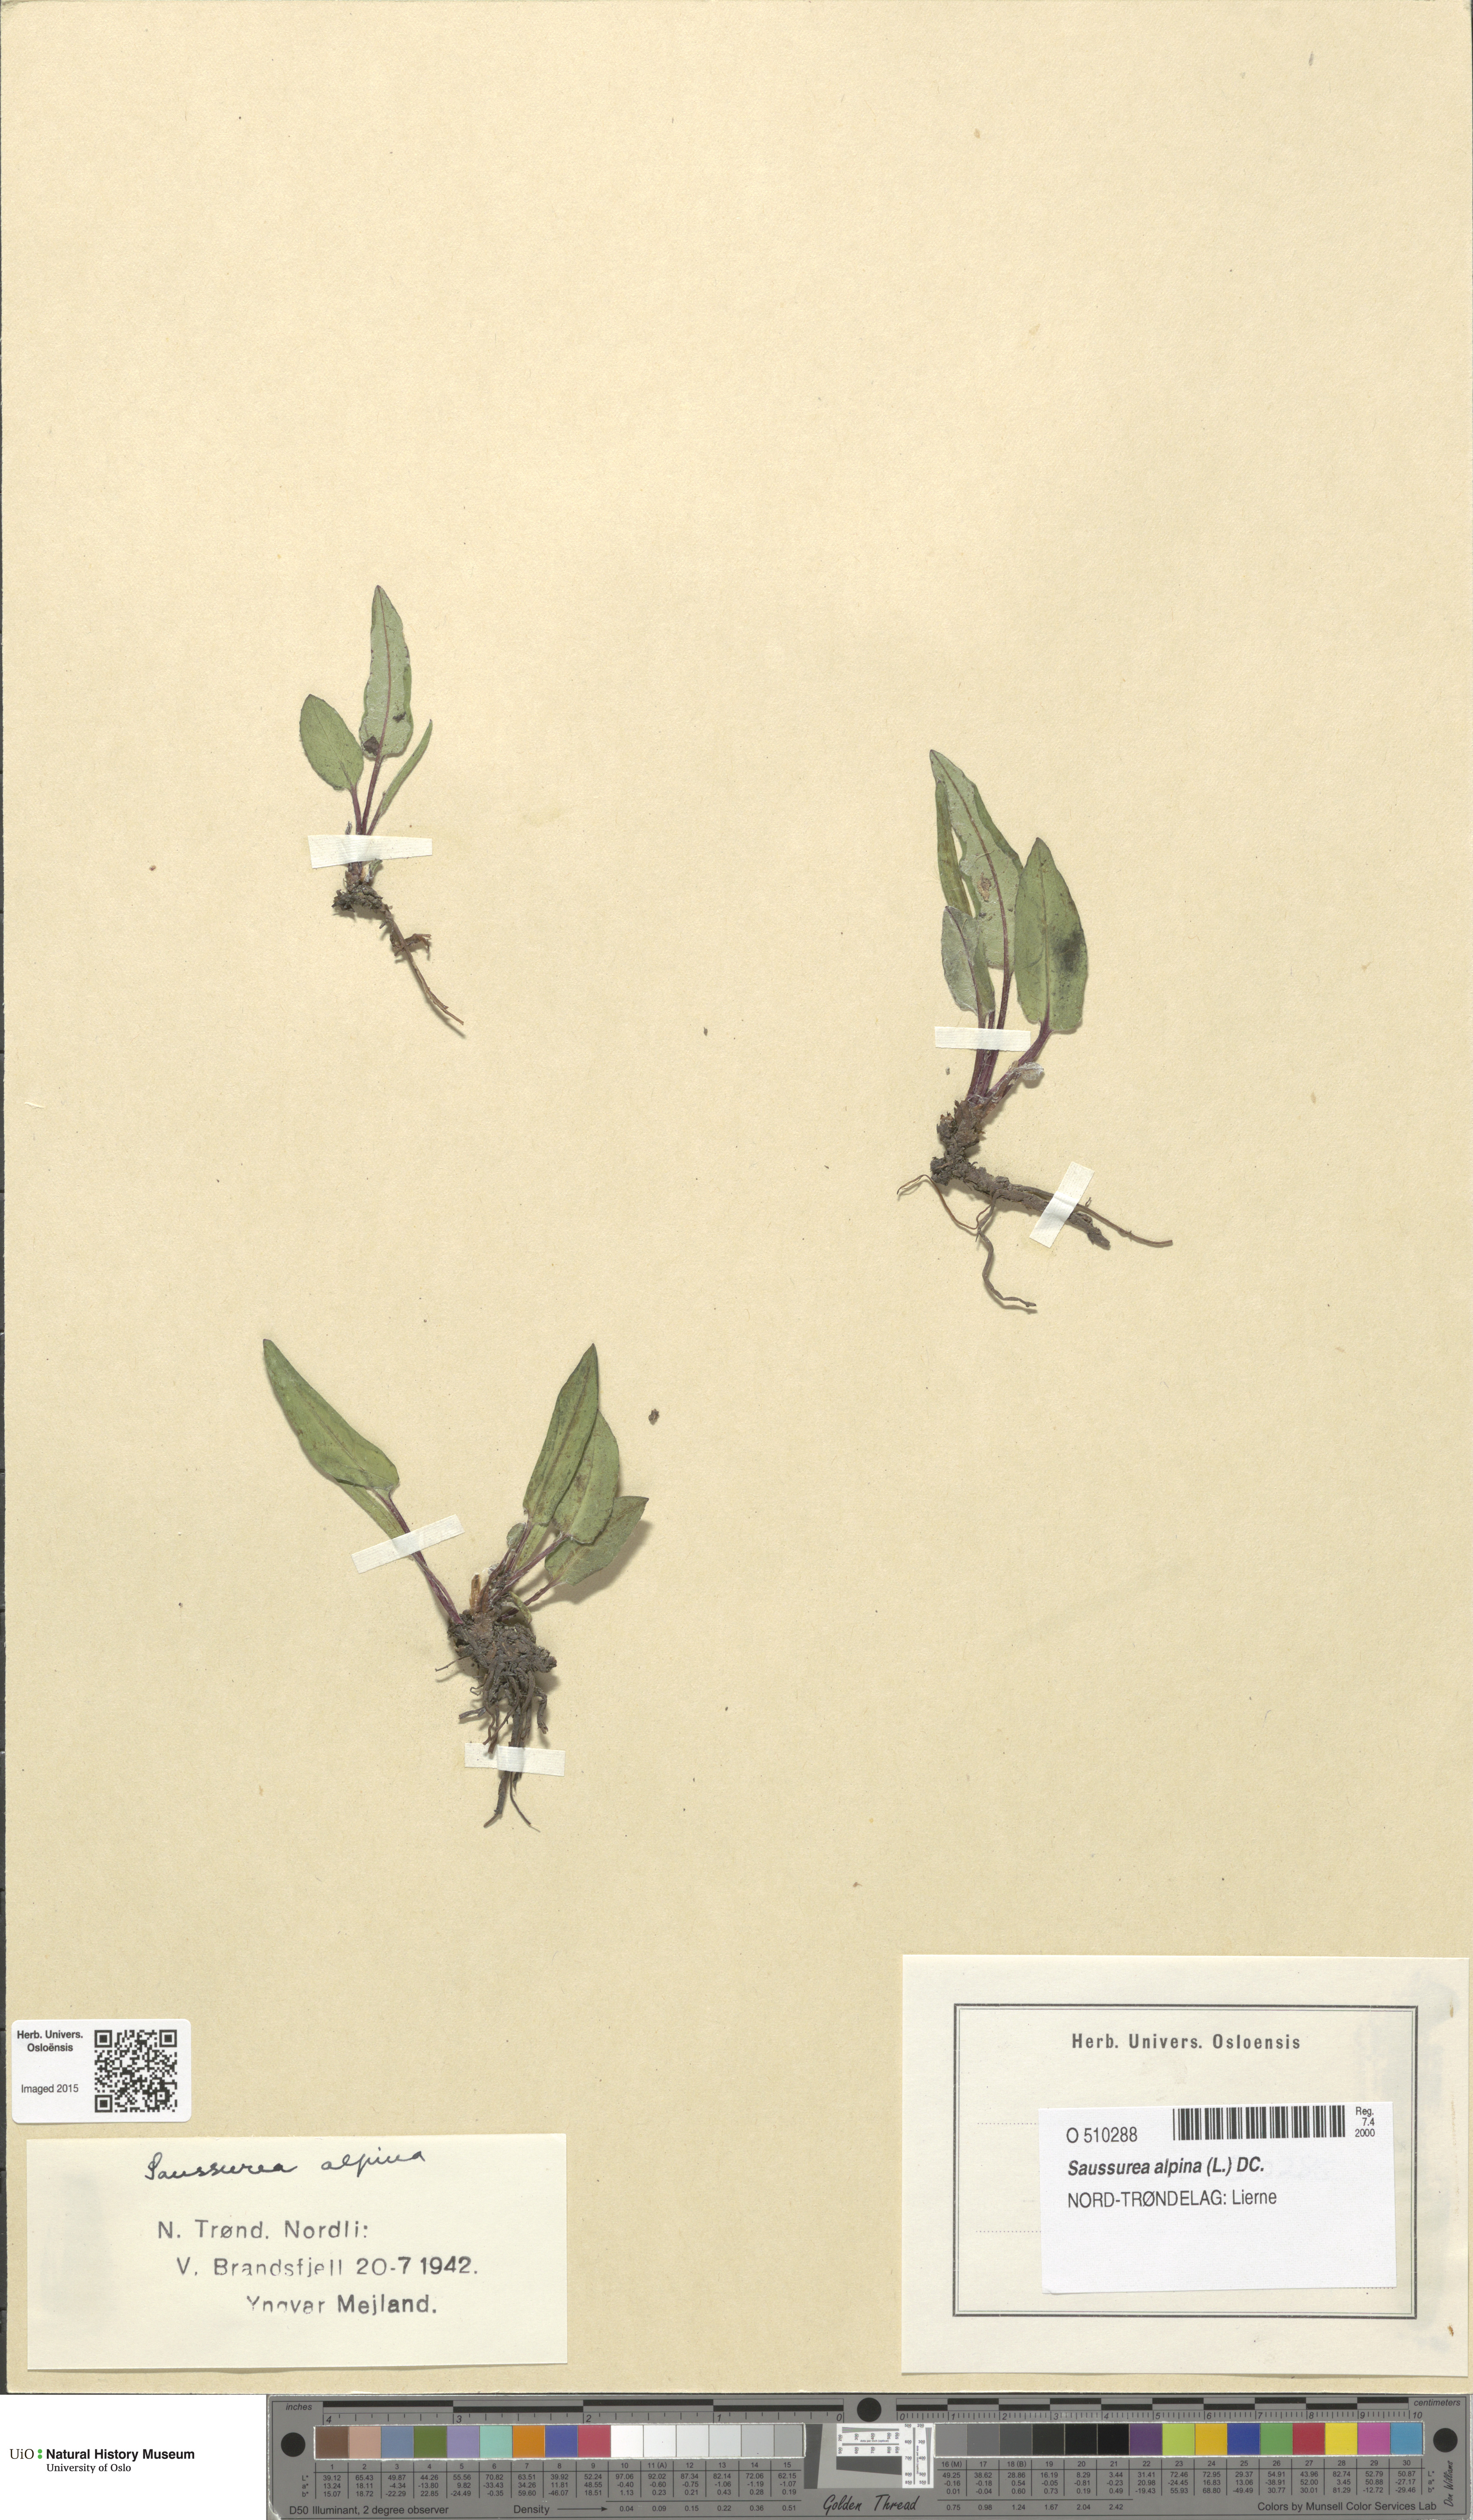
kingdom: Plantae
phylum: Tracheophyta
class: Magnoliopsida
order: Asterales
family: Asteraceae
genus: Saussurea
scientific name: Saussurea alpina
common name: Alpine saw-wort
